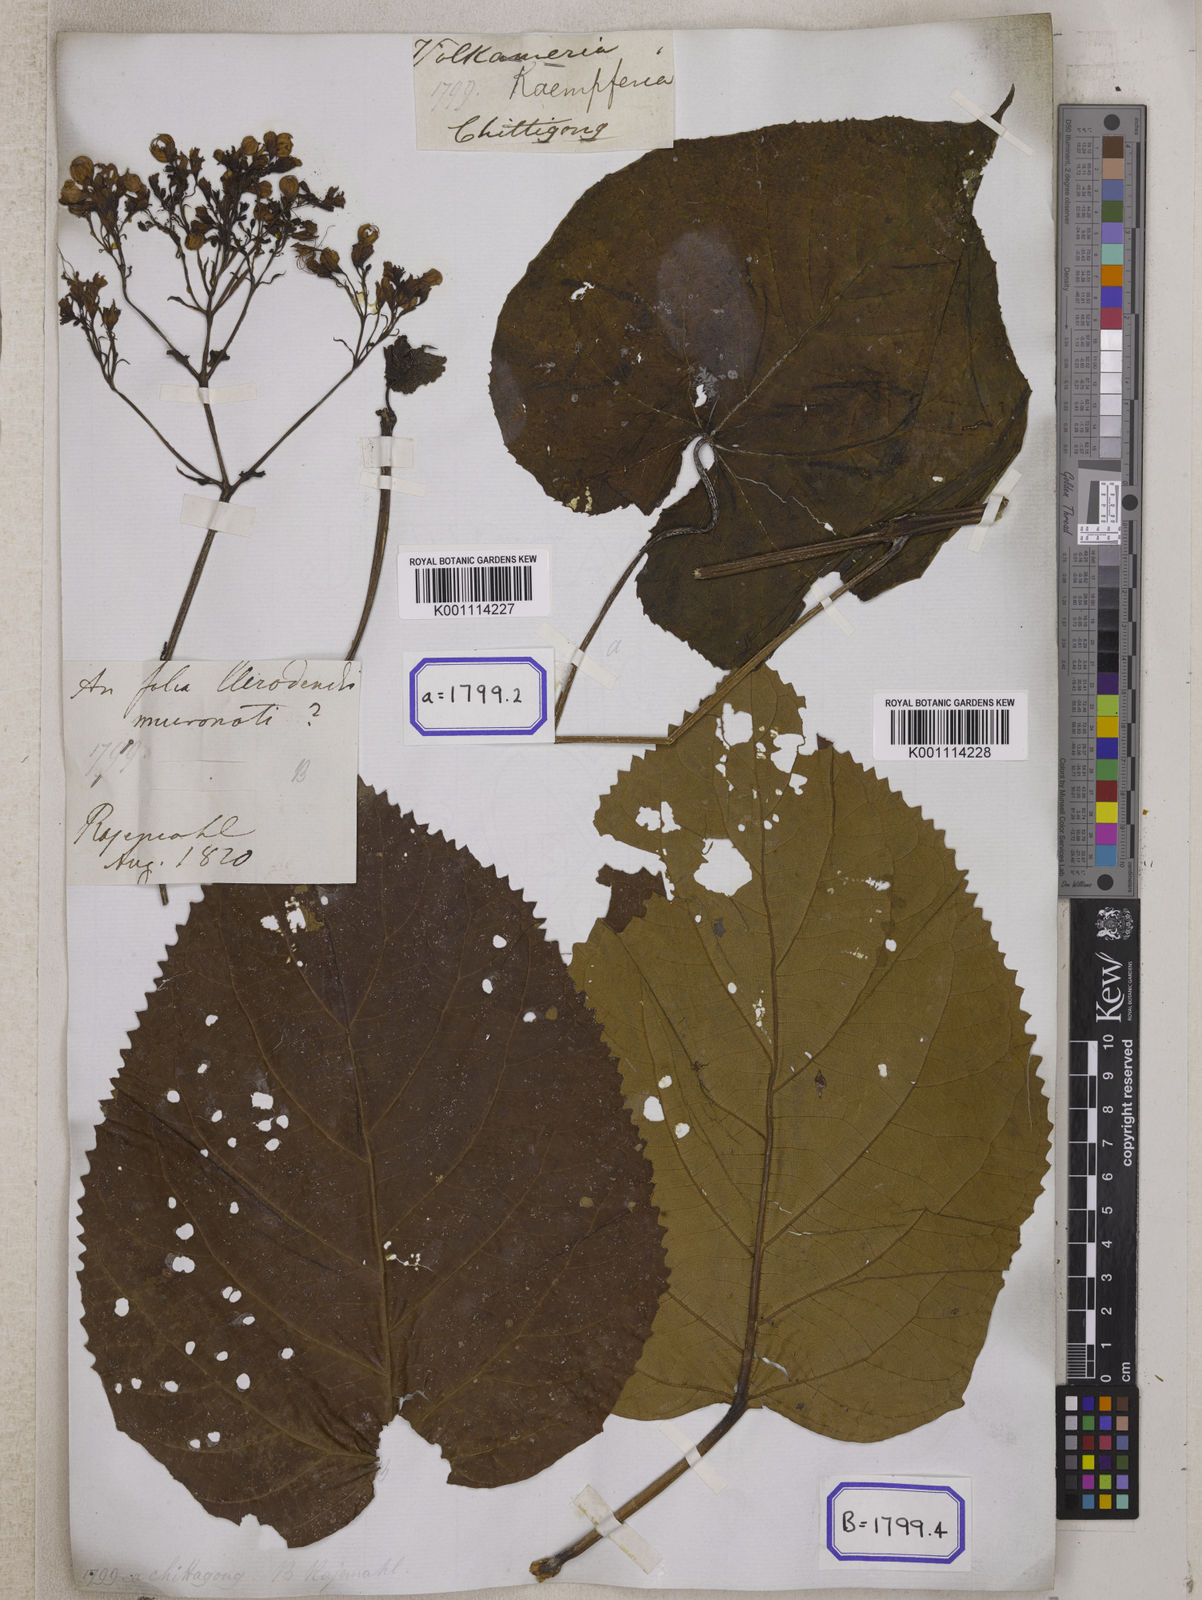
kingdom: Plantae
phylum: Tracheophyta
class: Magnoliopsida
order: Lamiales
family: Lamiaceae
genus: Clerodendrum
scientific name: Clerodendrum japonicum
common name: Japanese glorybower
